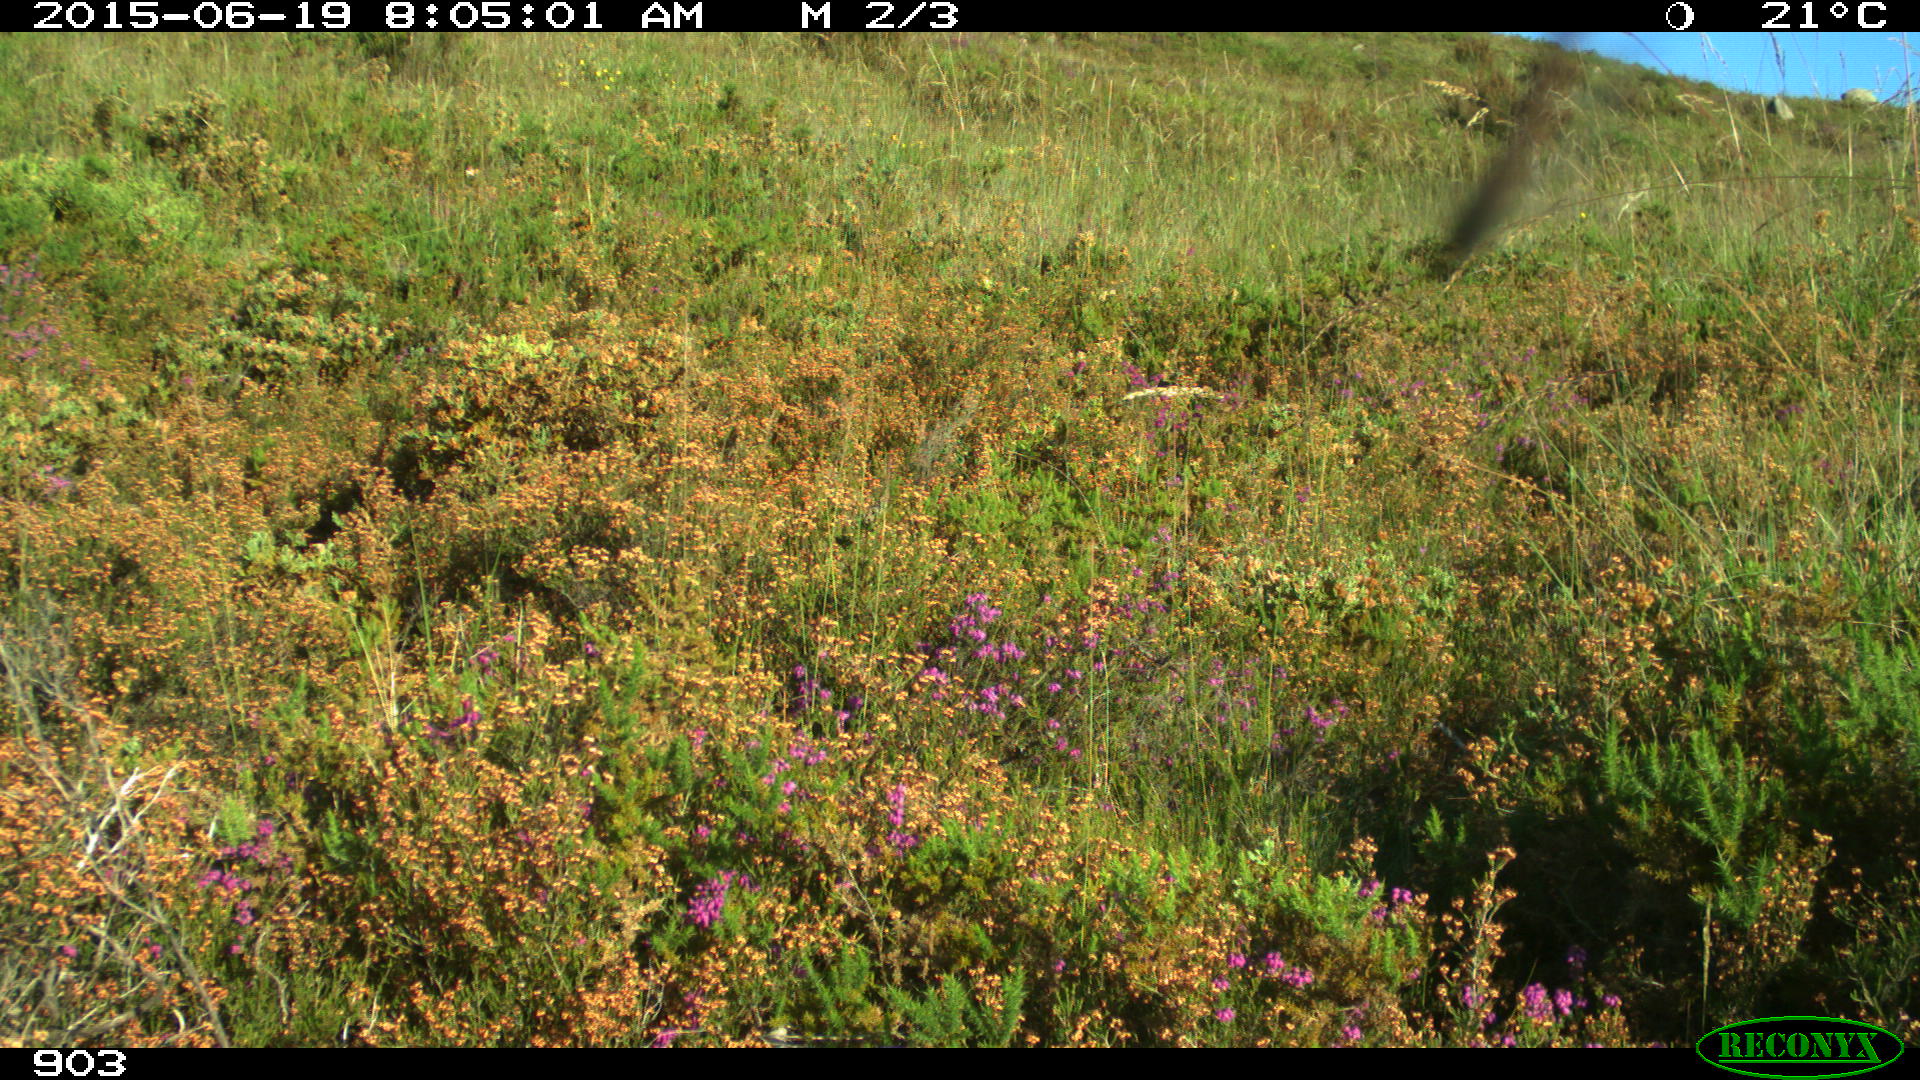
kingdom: Animalia
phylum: Chordata
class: Mammalia
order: Perissodactyla
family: Equidae
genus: Equus
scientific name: Equus caballus
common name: Horse
